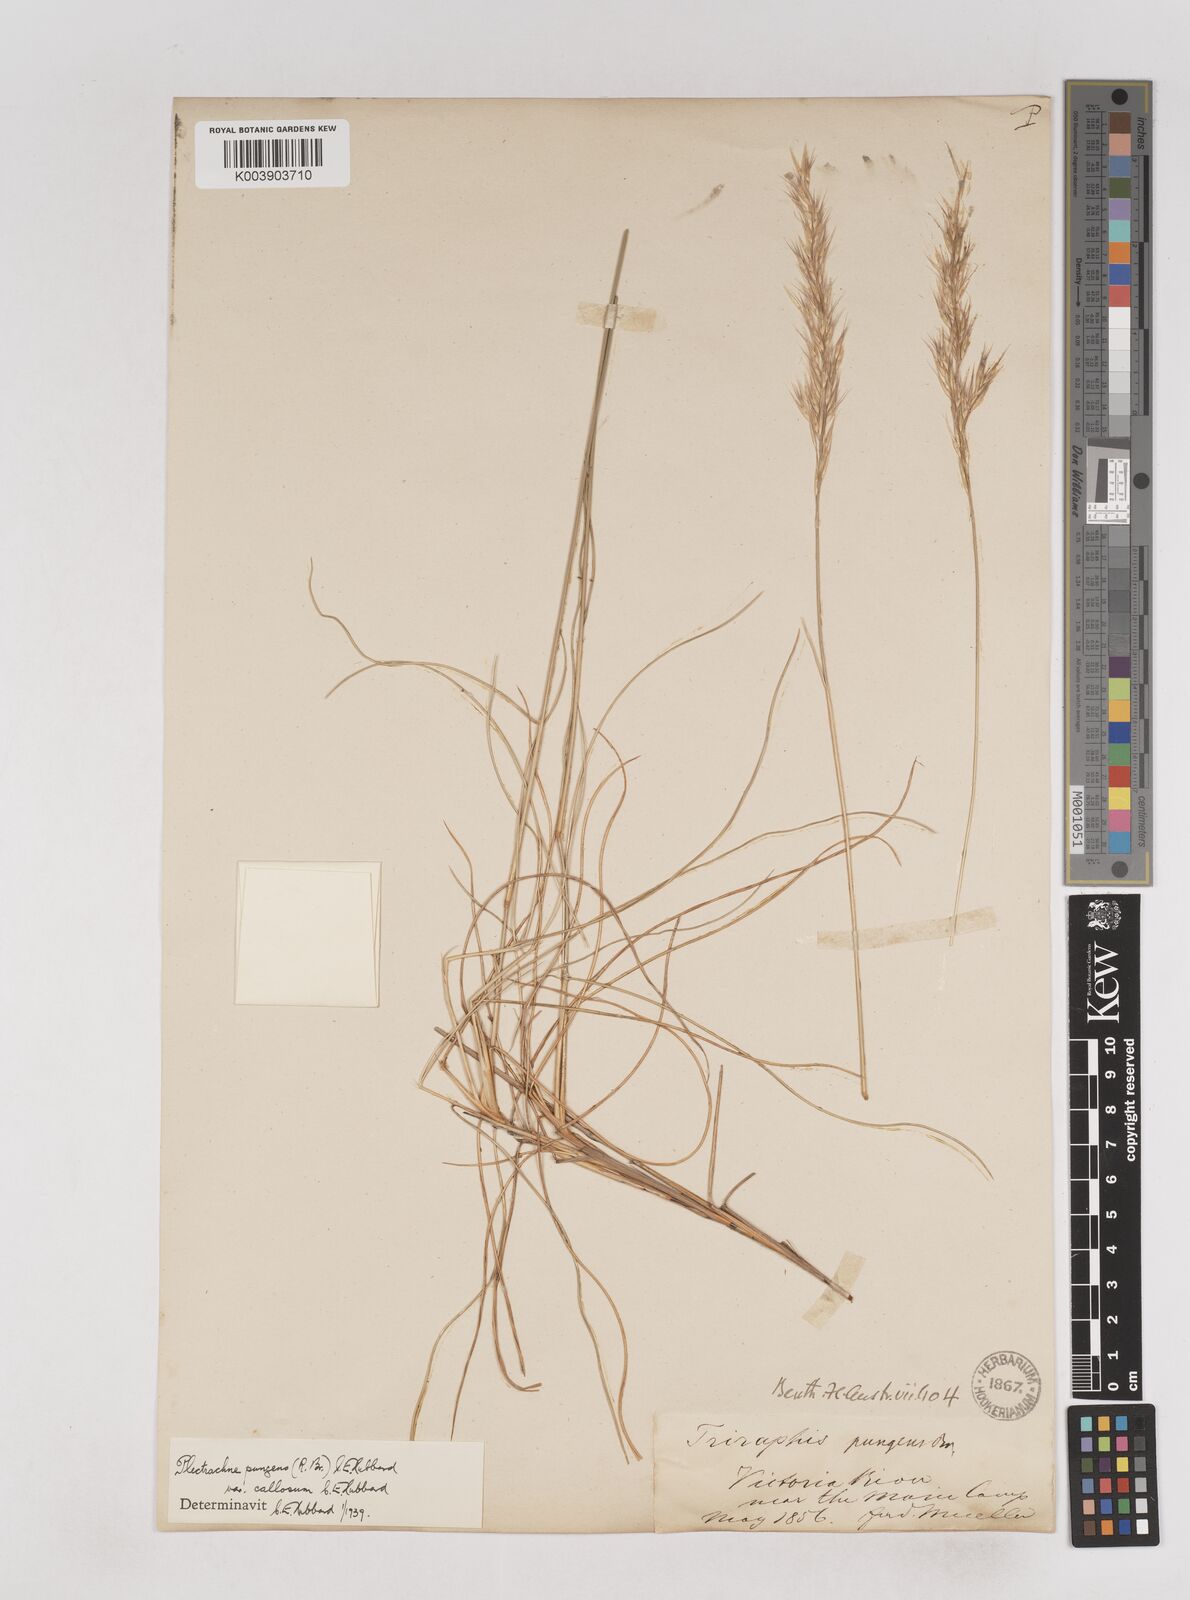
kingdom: Plantae
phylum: Tracheophyta
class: Liliopsida
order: Poales
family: Poaceae
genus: Triodia
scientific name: Triodia bitextura
